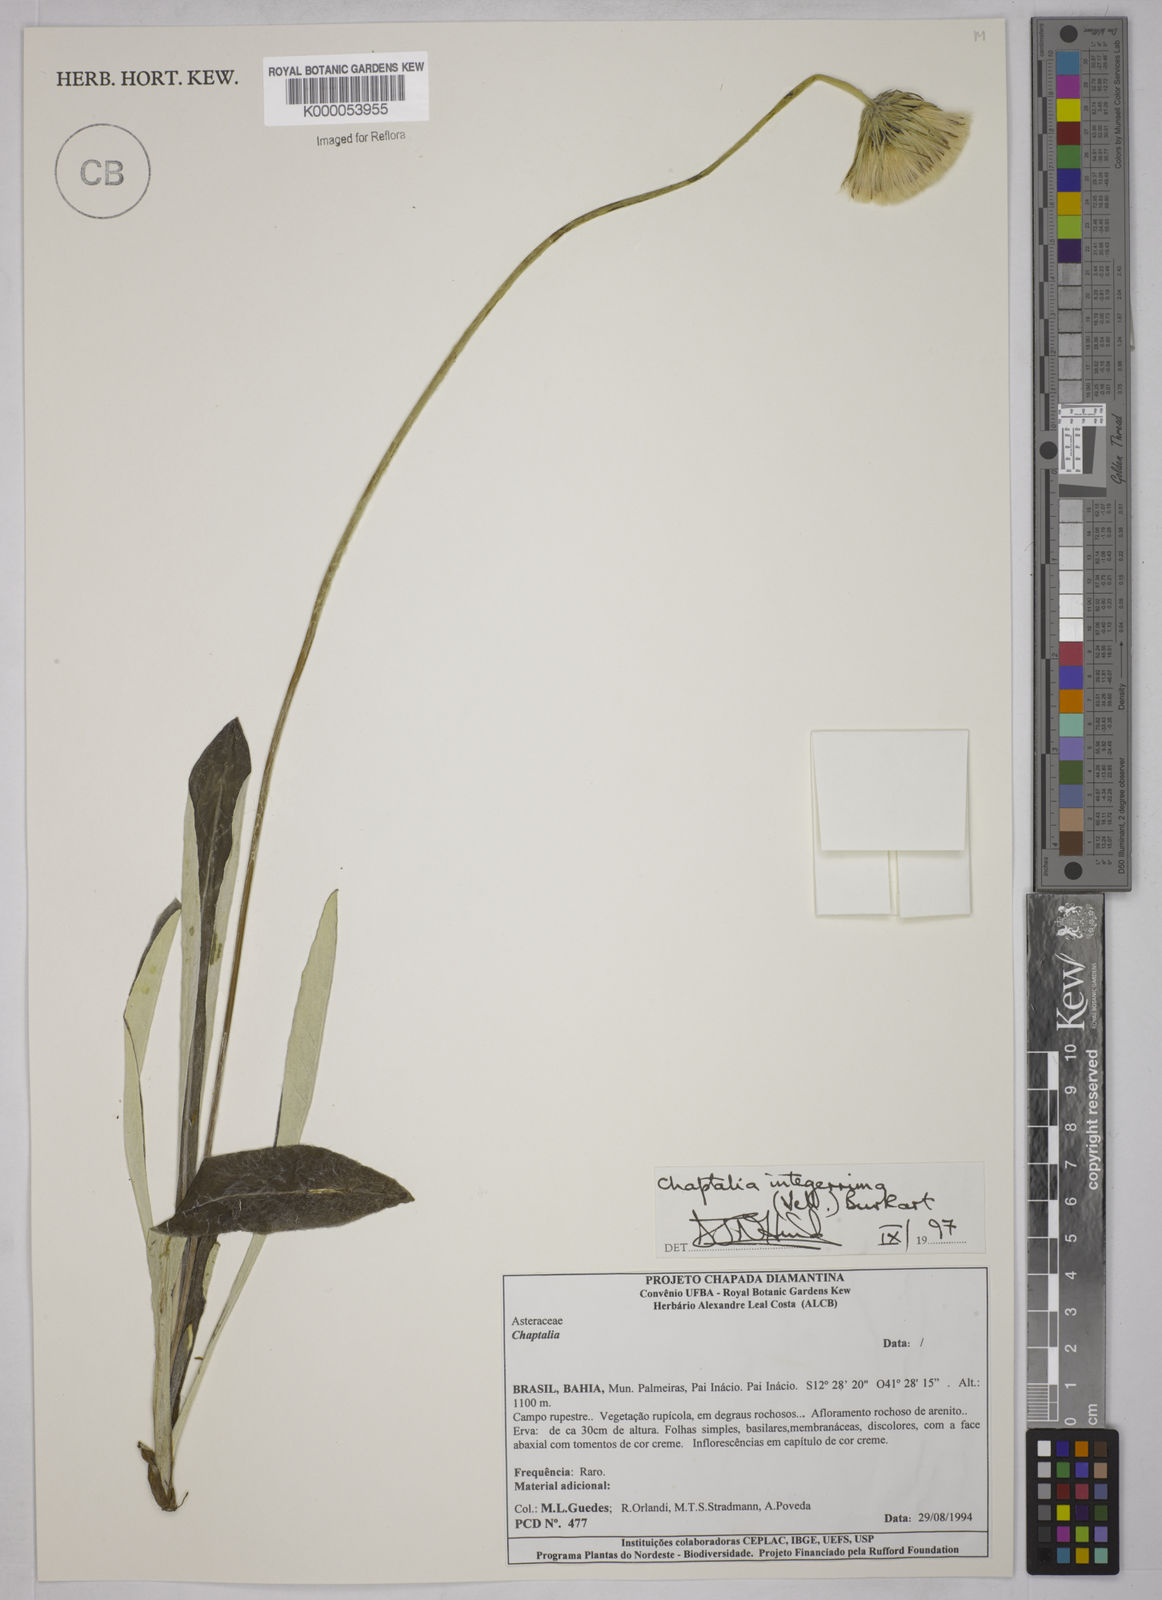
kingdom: Plantae
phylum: Tracheophyta
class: Magnoliopsida
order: Asterales
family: Asteraceae
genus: Chaptalia
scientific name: Chaptalia integerrima
